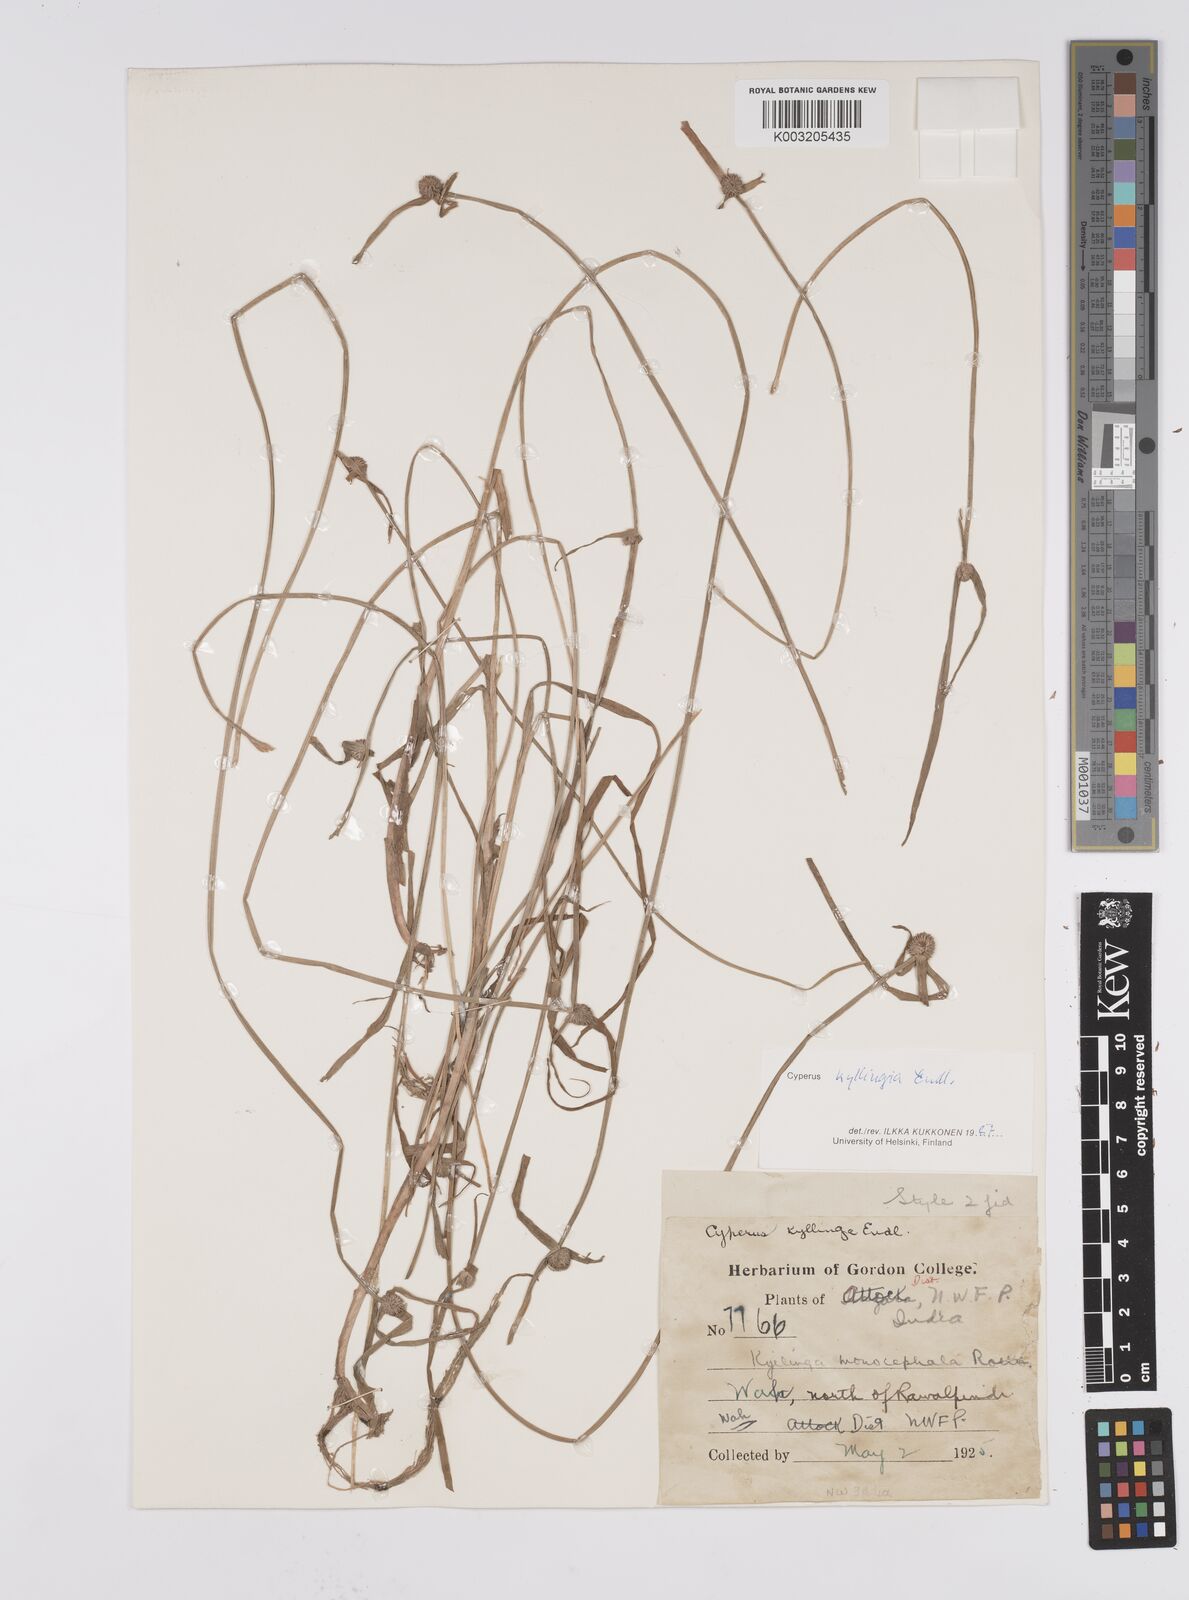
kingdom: Plantae
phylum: Tracheophyta
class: Liliopsida
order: Poales
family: Cyperaceae
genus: Cyperus
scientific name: Cyperus nemoralis
